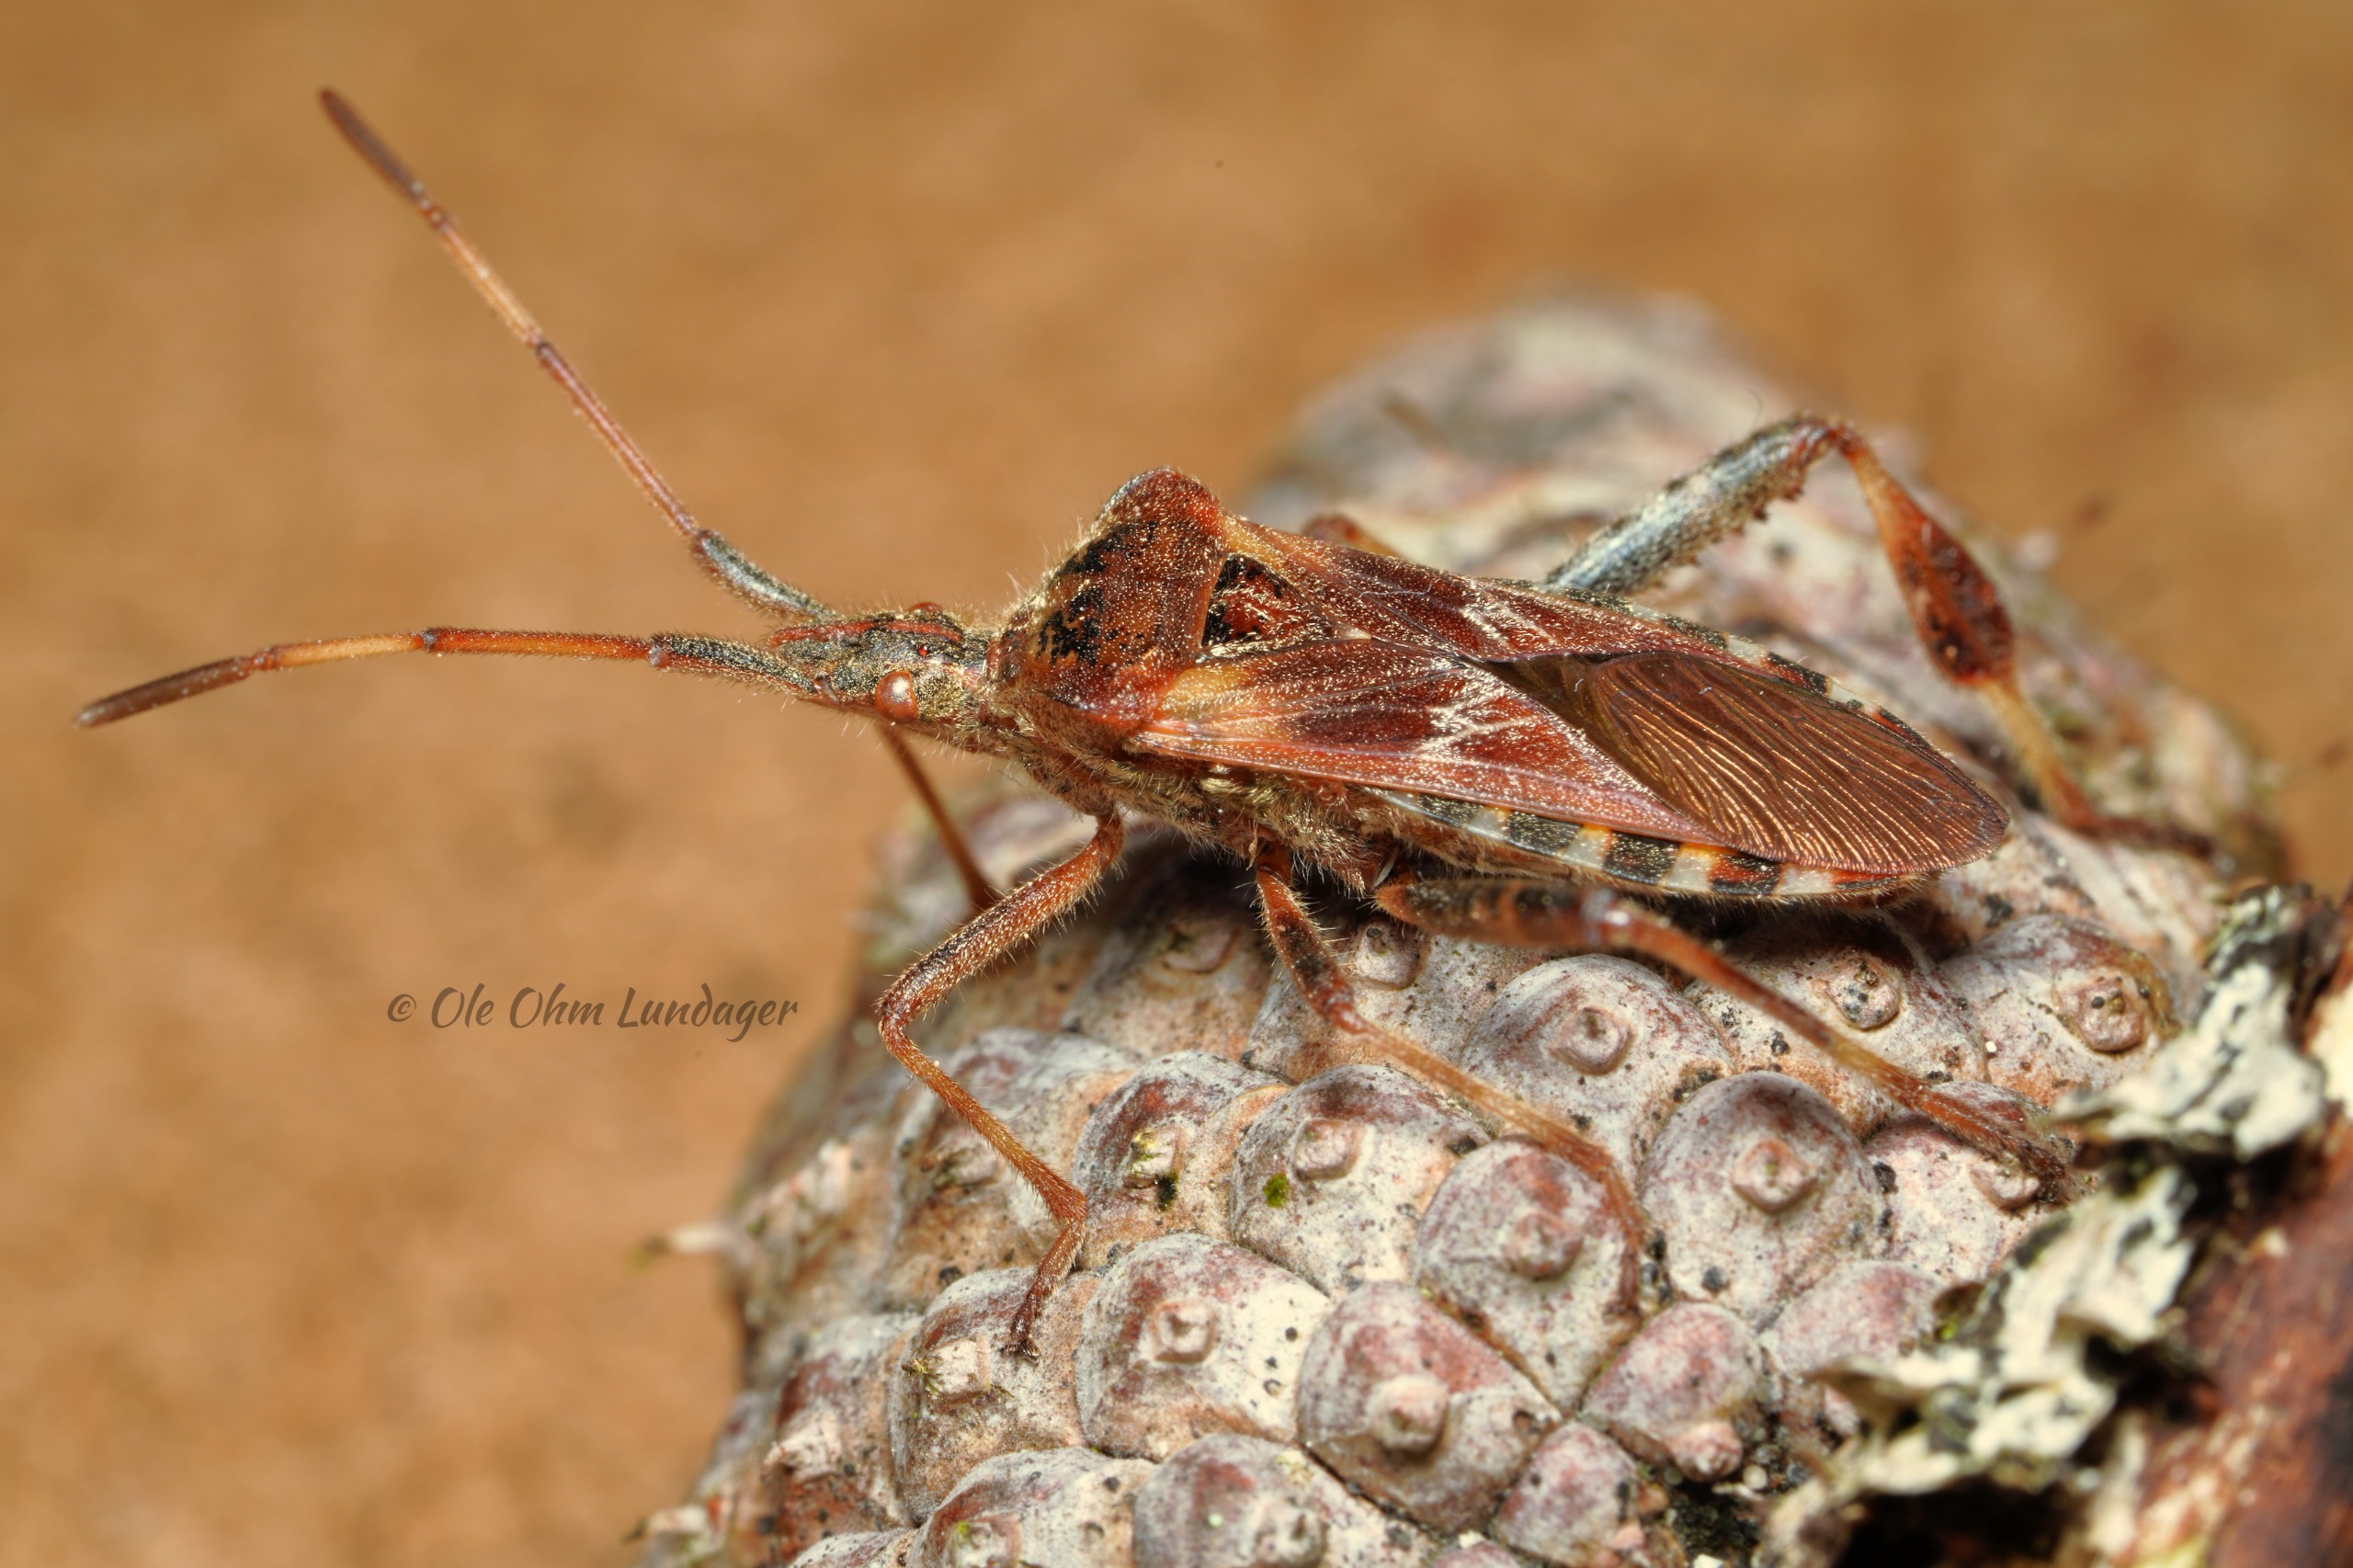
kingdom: Animalia
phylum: Arthropoda
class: Insecta
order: Hemiptera
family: Coreidae
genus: Leptoglossus
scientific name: Leptoglossus occidentalis
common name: Amerikansk fyrretæge
